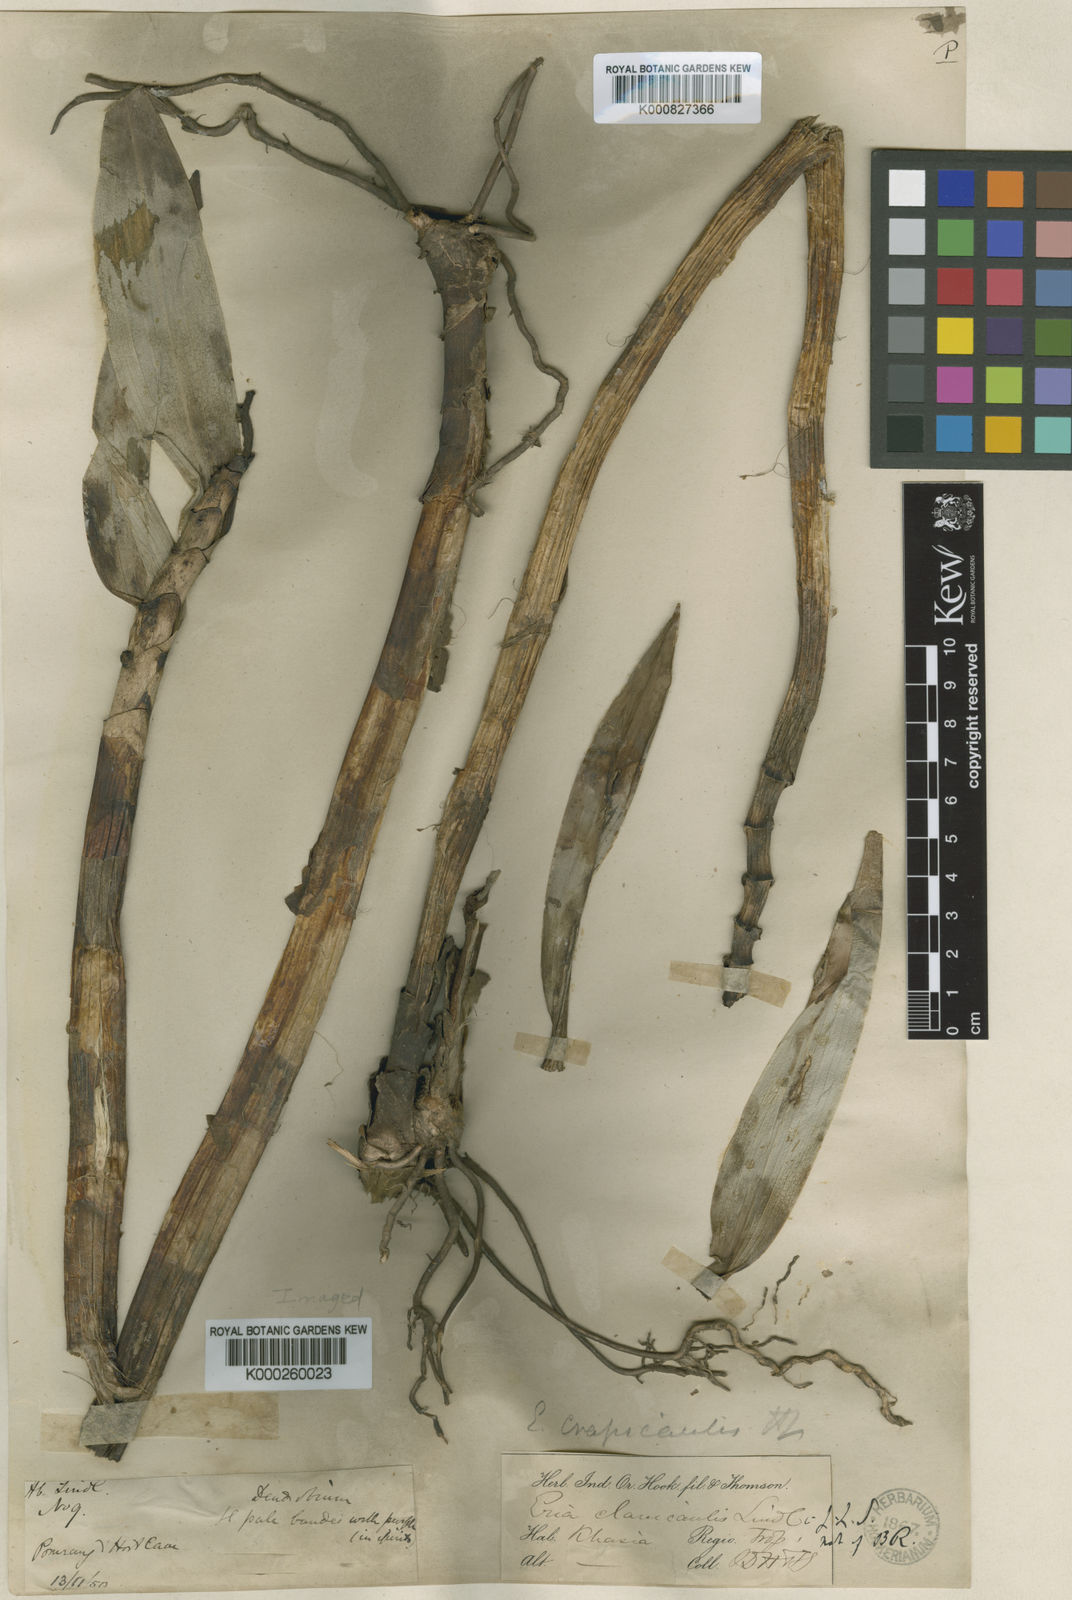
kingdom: Plantae
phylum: Tracheophyta
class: Liliopsida
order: Asparagales
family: Orchidaceae
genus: Bambuseria
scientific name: Bambuseria crassicaulis
